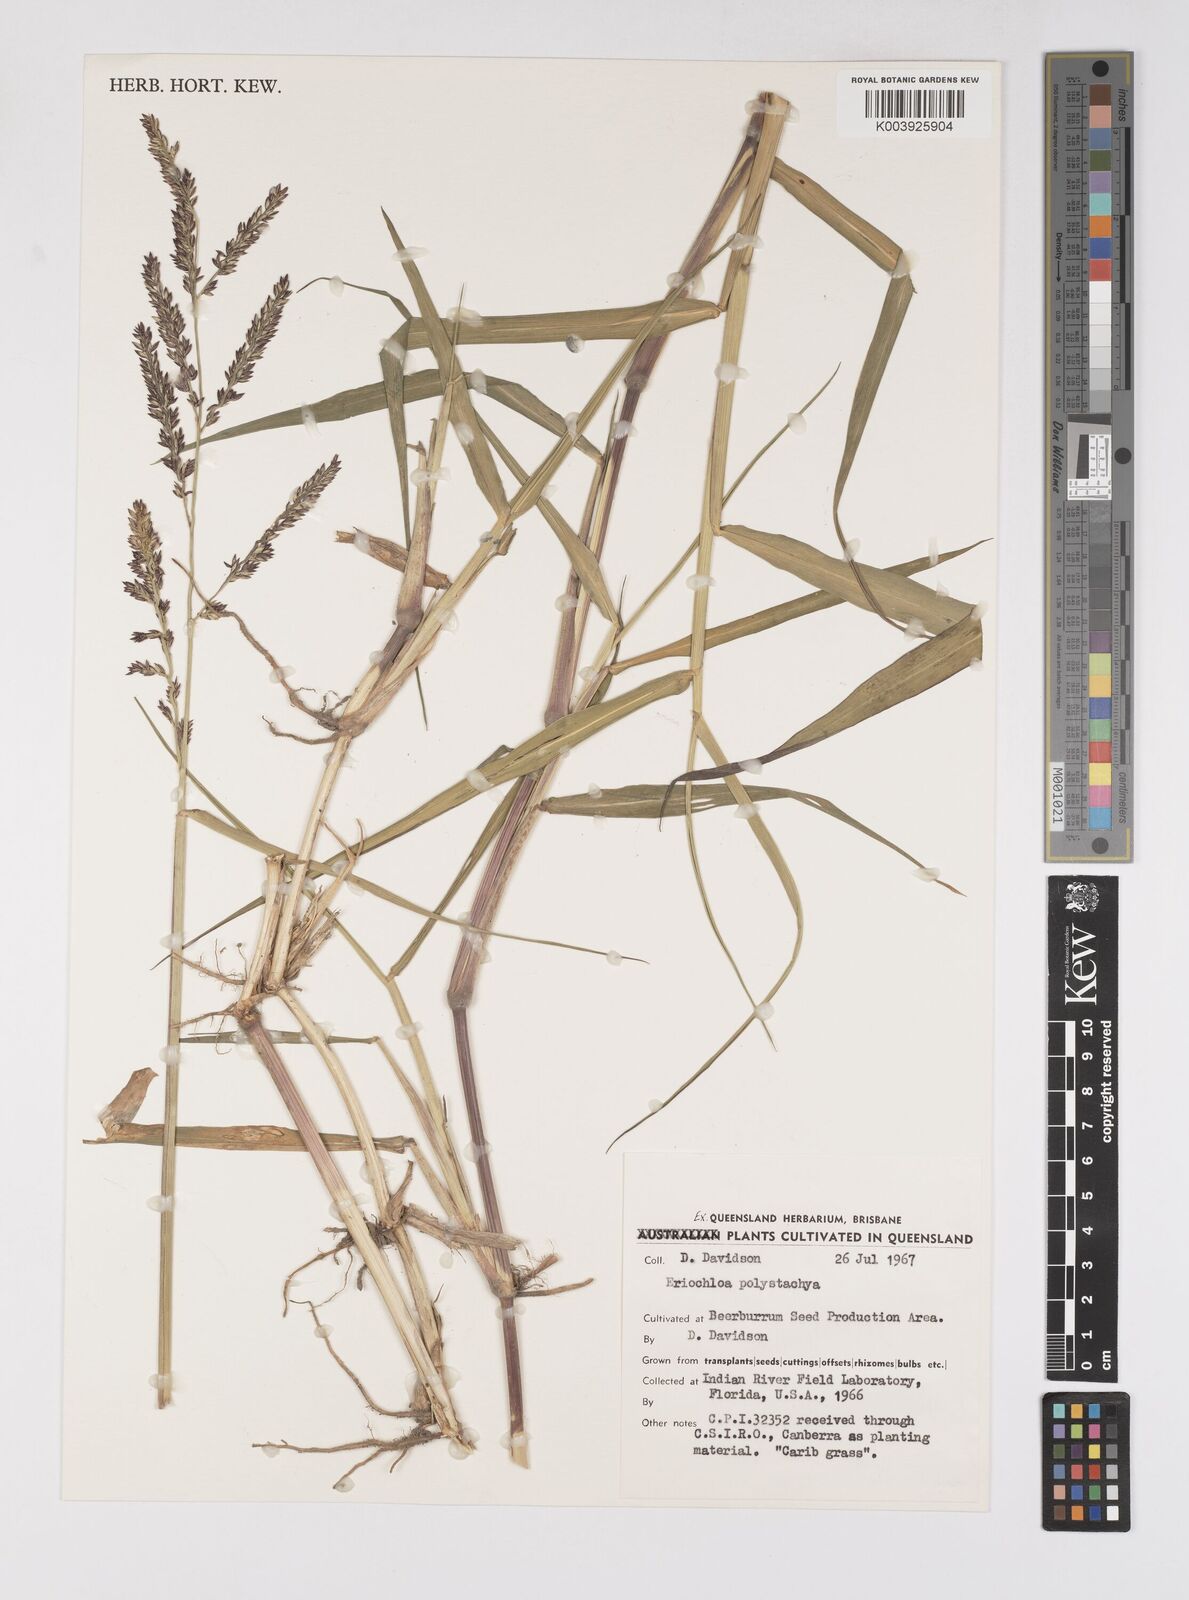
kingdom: Plantae
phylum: Tracheophyta
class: Liliopsida
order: Poales
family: Poaceae
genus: Urochloa
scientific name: Urochloa polystachya
